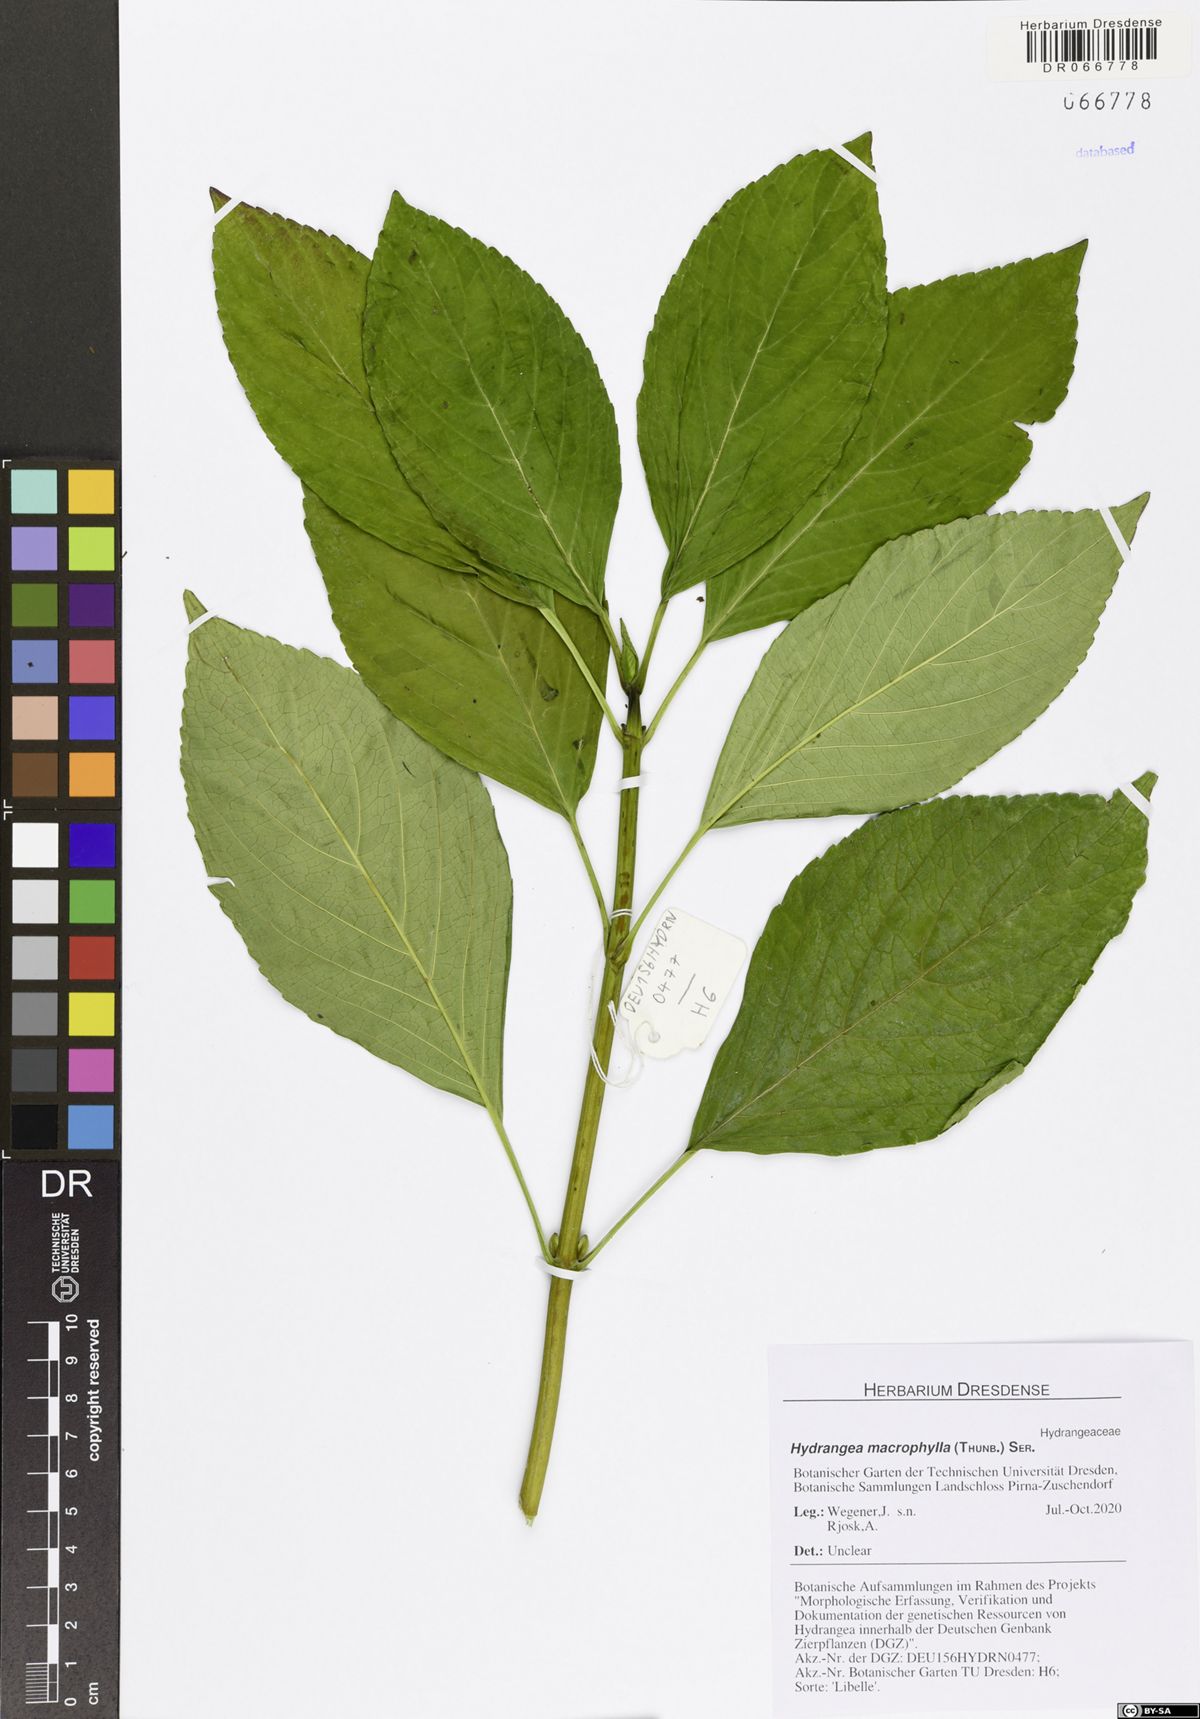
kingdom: Plantae
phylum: Tracheophyta
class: Magnoliopsida
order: Cornales
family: Hydrangeaceae
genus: Hydrangea
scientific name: Hydrangea macrophylla
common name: Hydrangea
